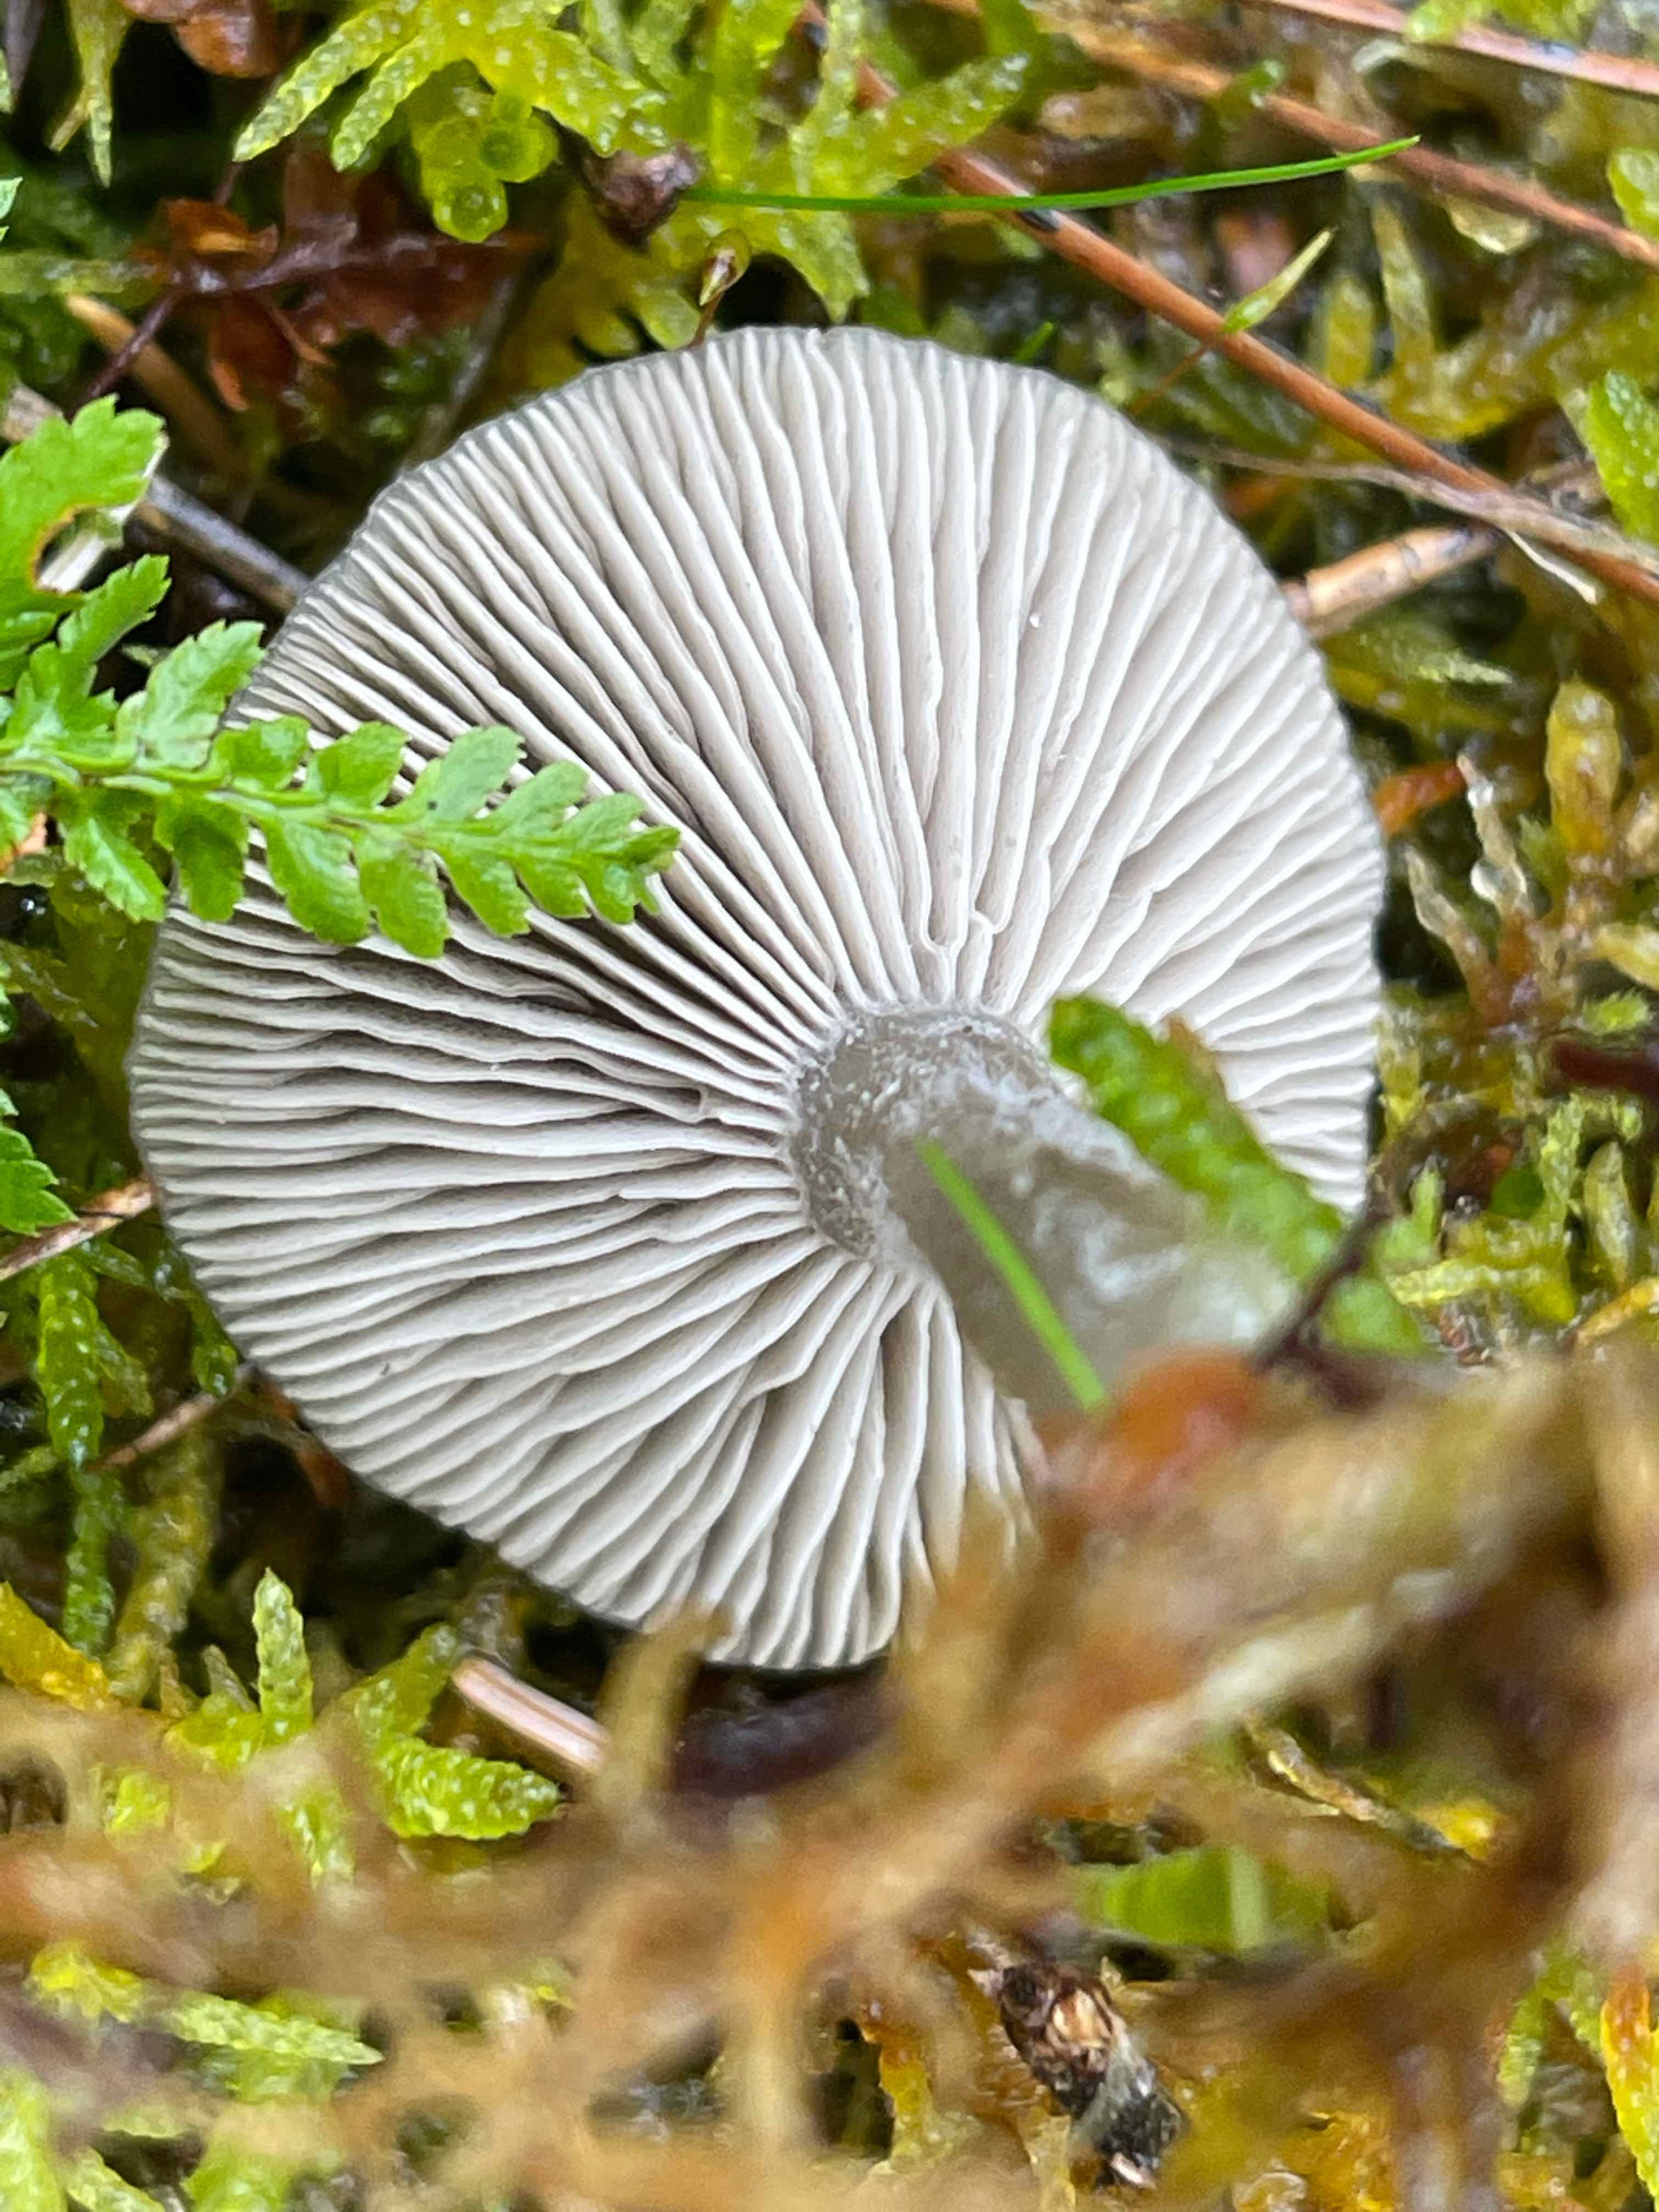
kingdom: Fungi
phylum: Basidiomycota
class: Agaricomycetes
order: Agaricales
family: Tricholomataceae
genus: Clitocybe
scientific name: Clitocybe
